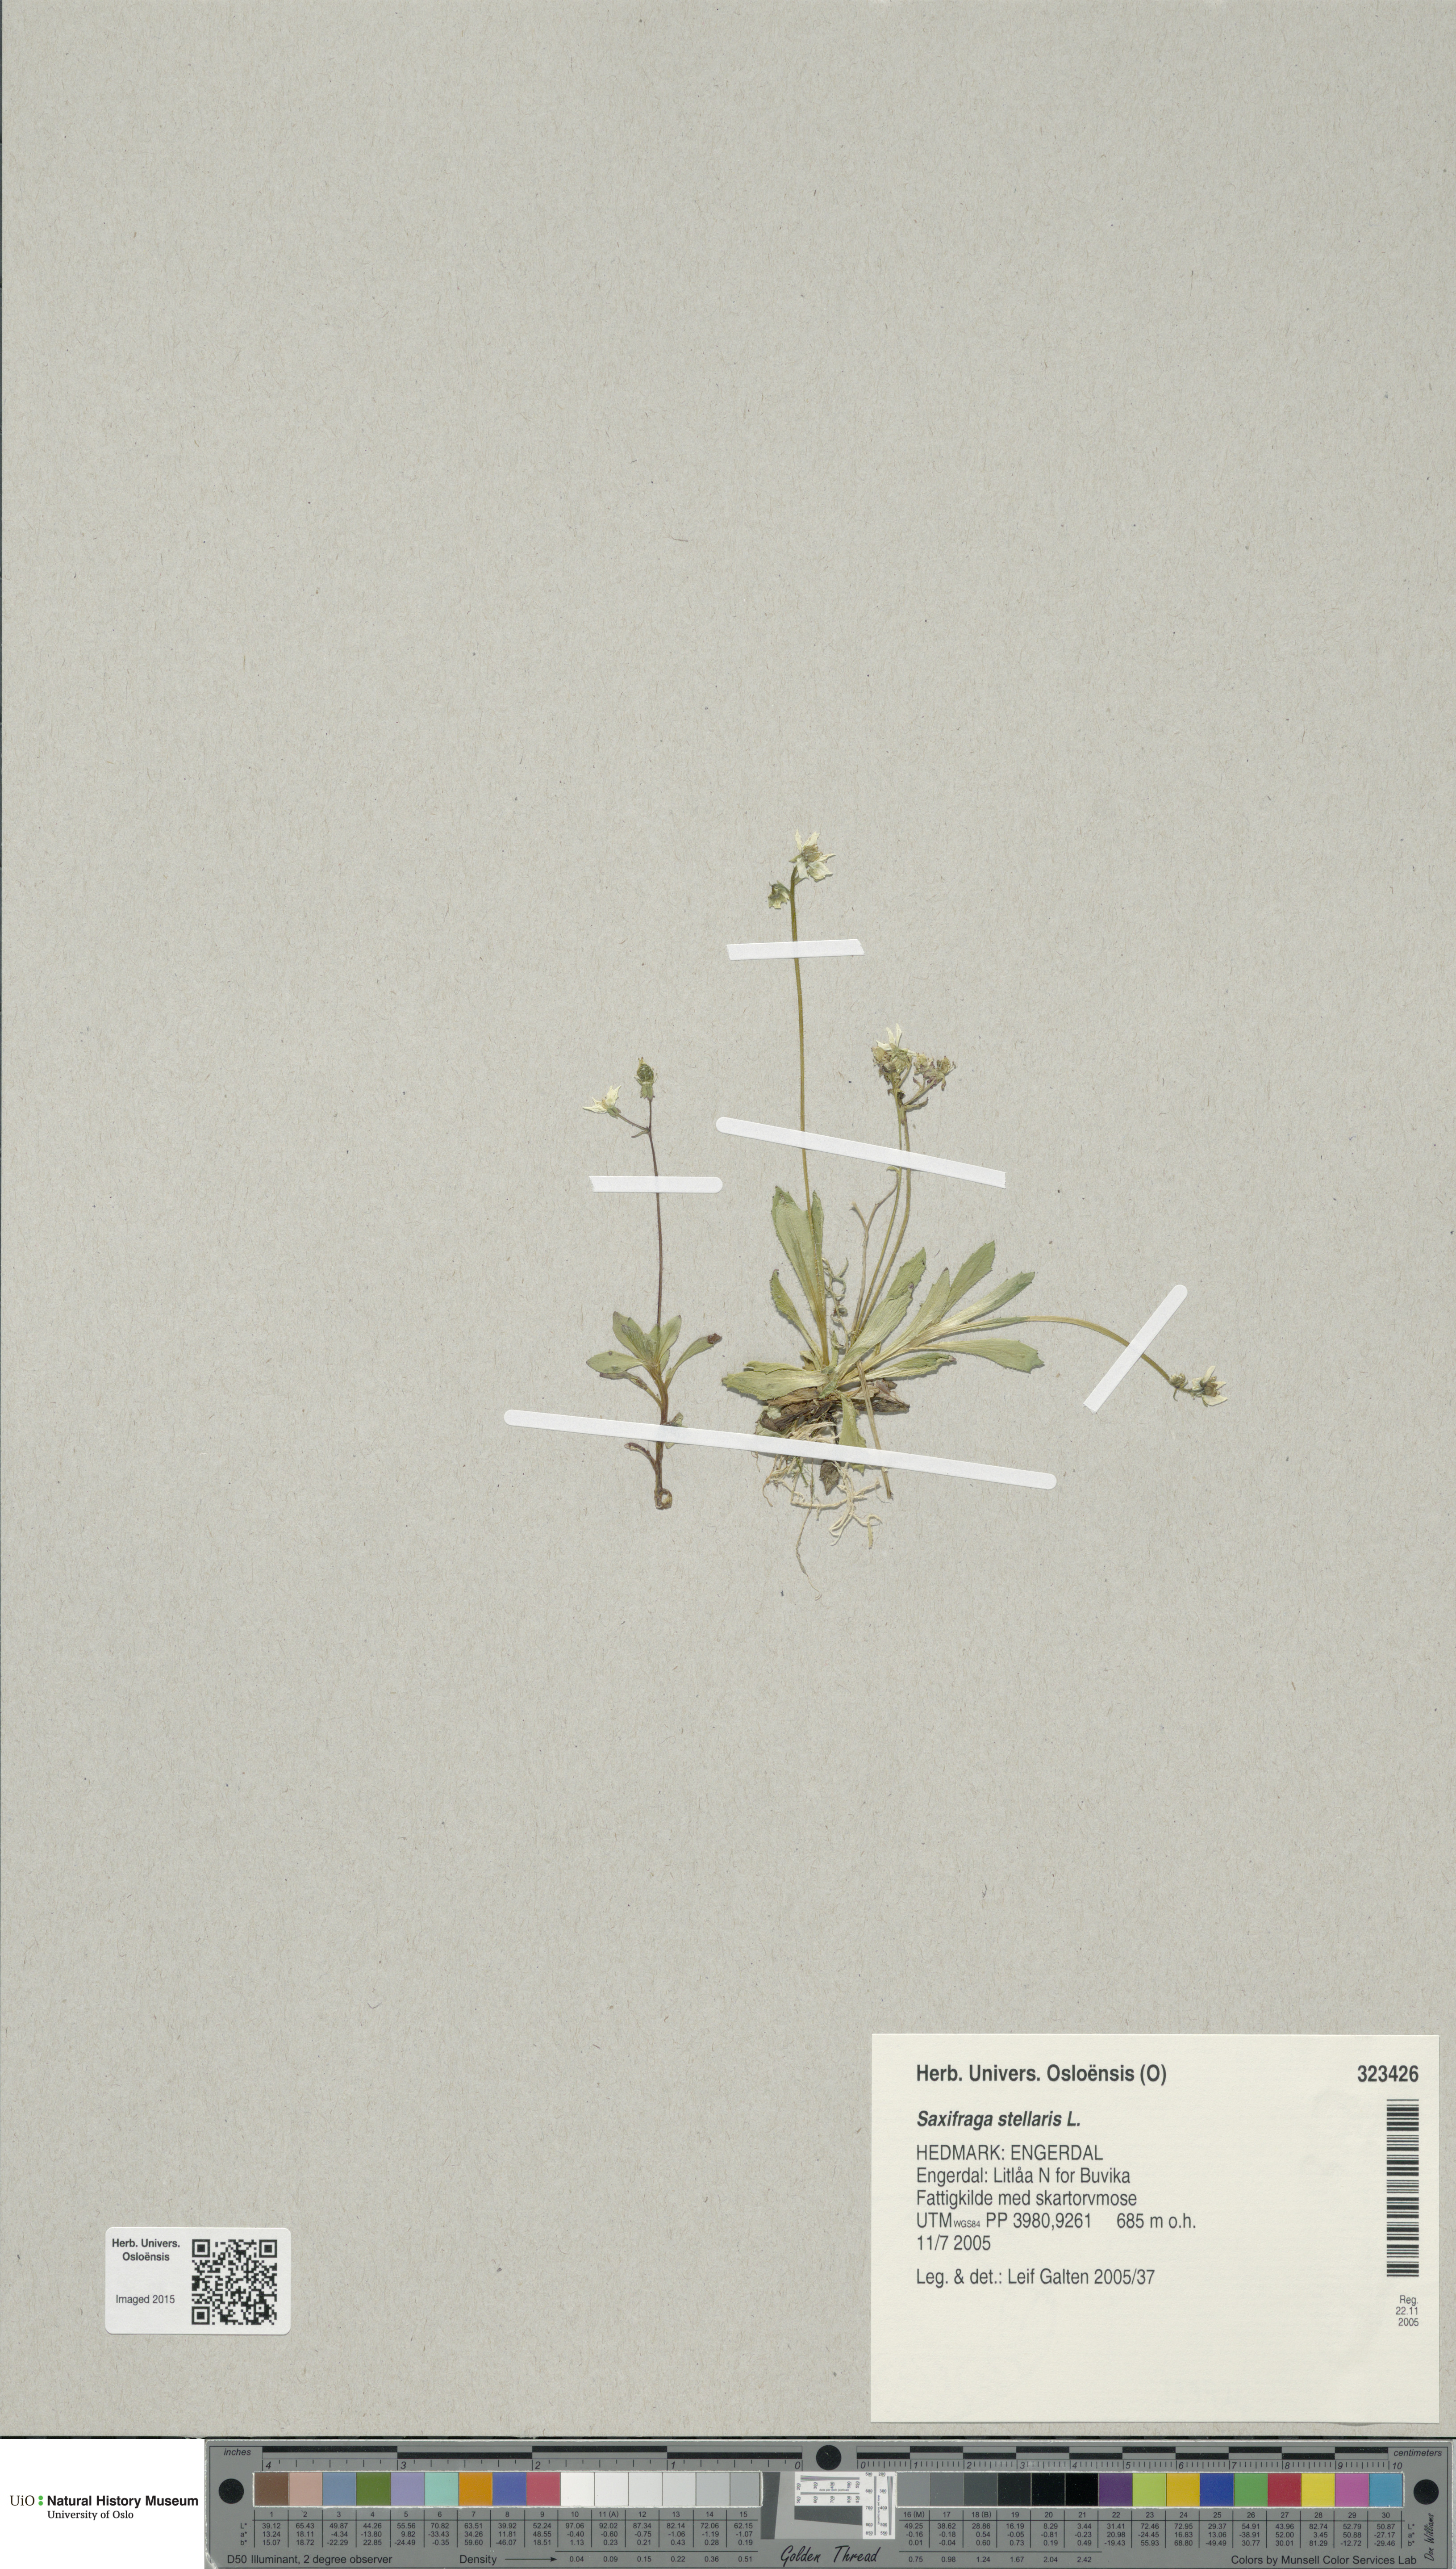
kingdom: Plantae
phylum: Tracheophyta
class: Magnoliopsida
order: Saxifragales
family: Saxifragaceae
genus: Micranthes
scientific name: Micranthes stellaris
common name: Starry saxifrage
